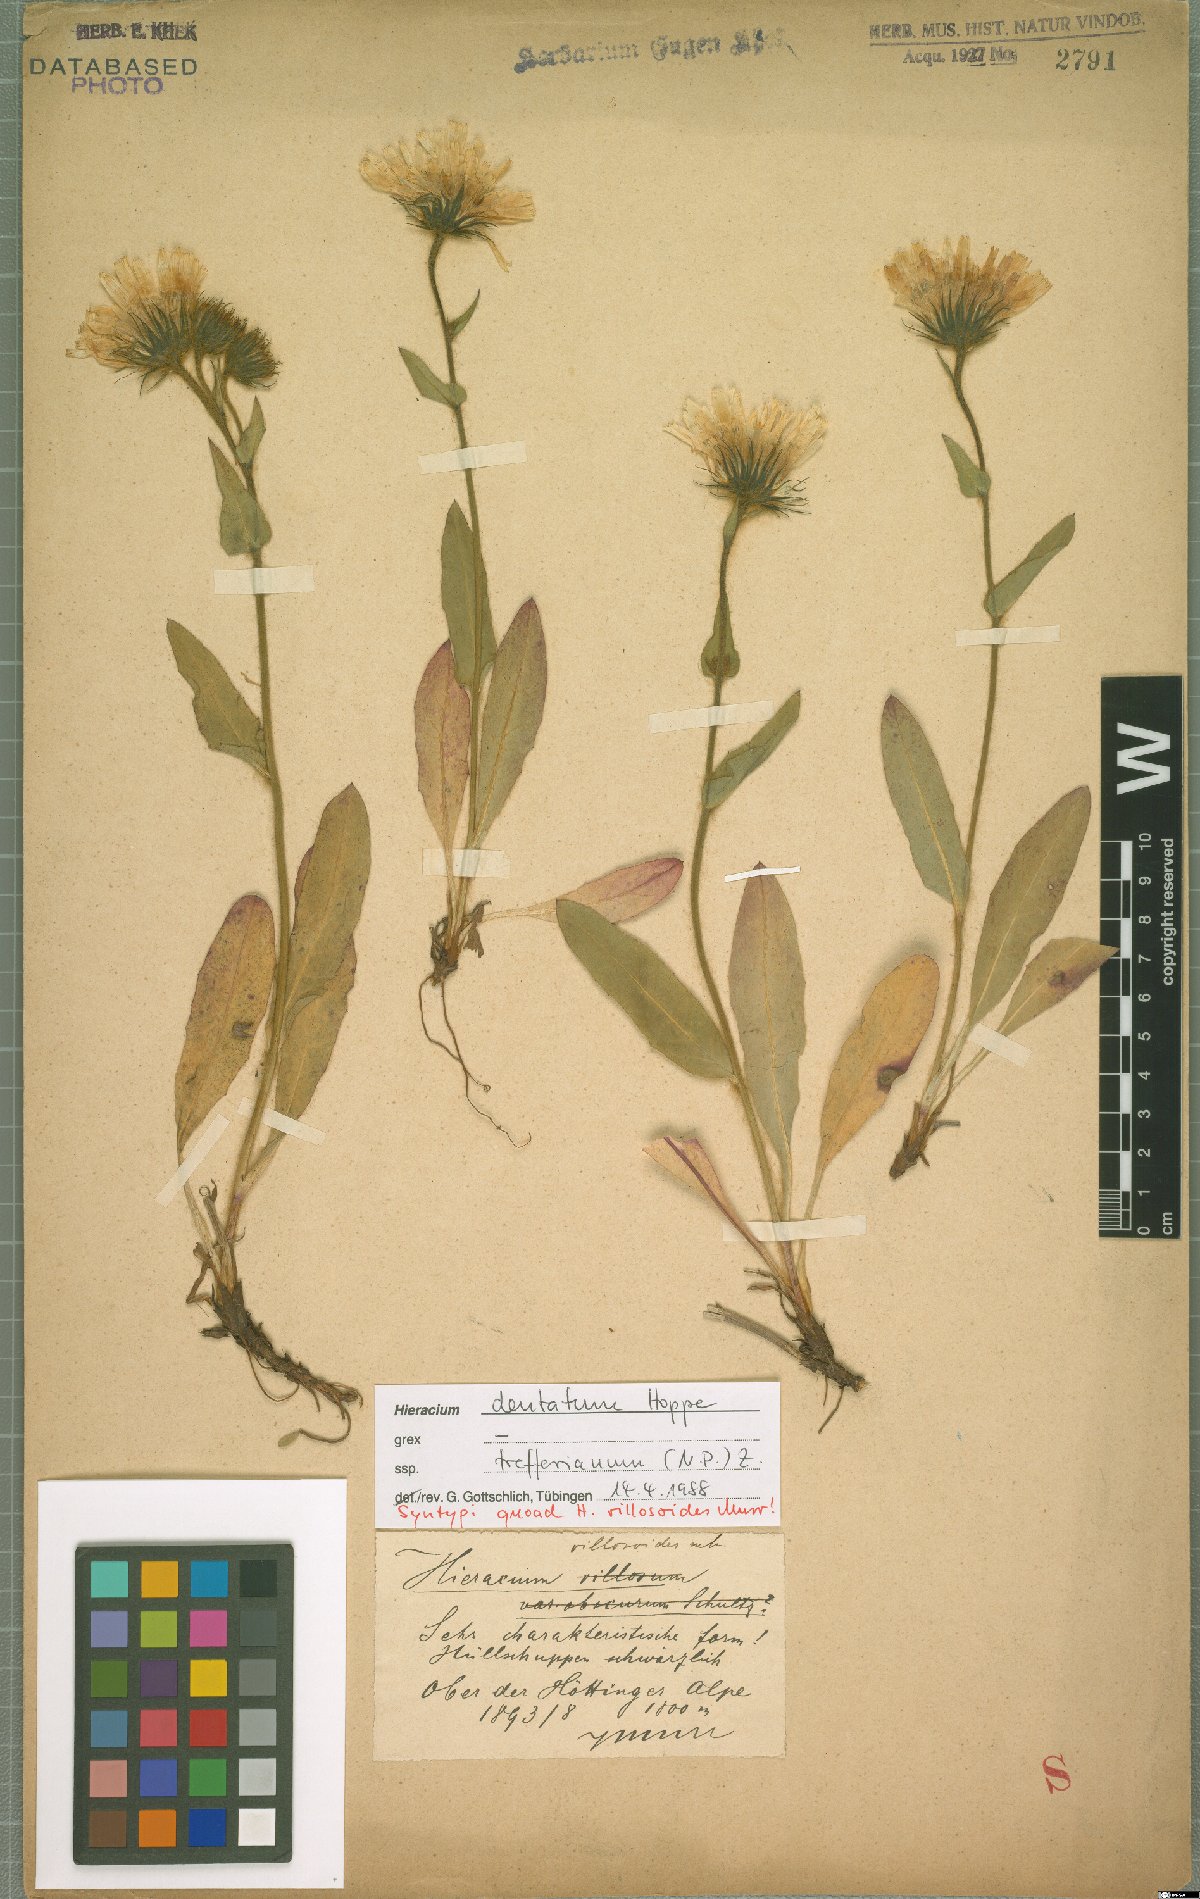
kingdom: Plantae
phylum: Tracheophyta
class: Magnoliopsida
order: Asterales
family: Asteraceae
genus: Hieracium
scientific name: Hieracium dentatum
